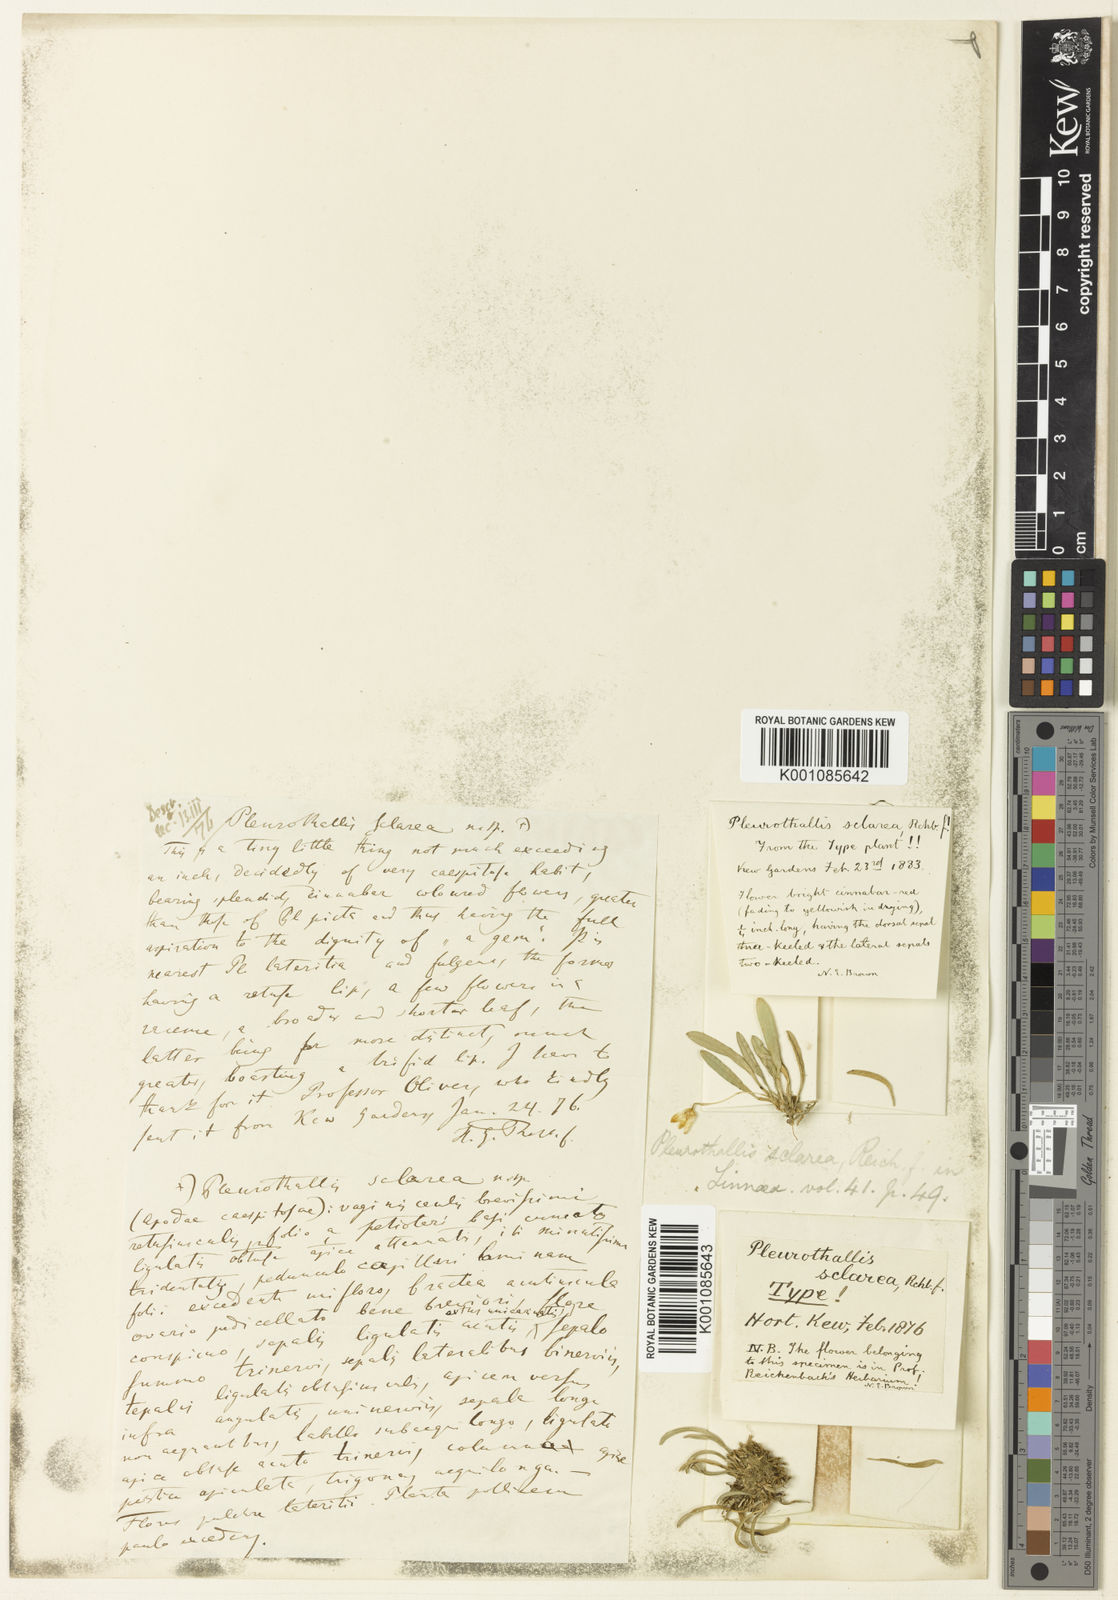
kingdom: Plantae
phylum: Tracheophyta
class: Liliopsida
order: Asparagales
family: Orchidaceae
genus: Specklinia
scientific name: Specklinia lanceola
